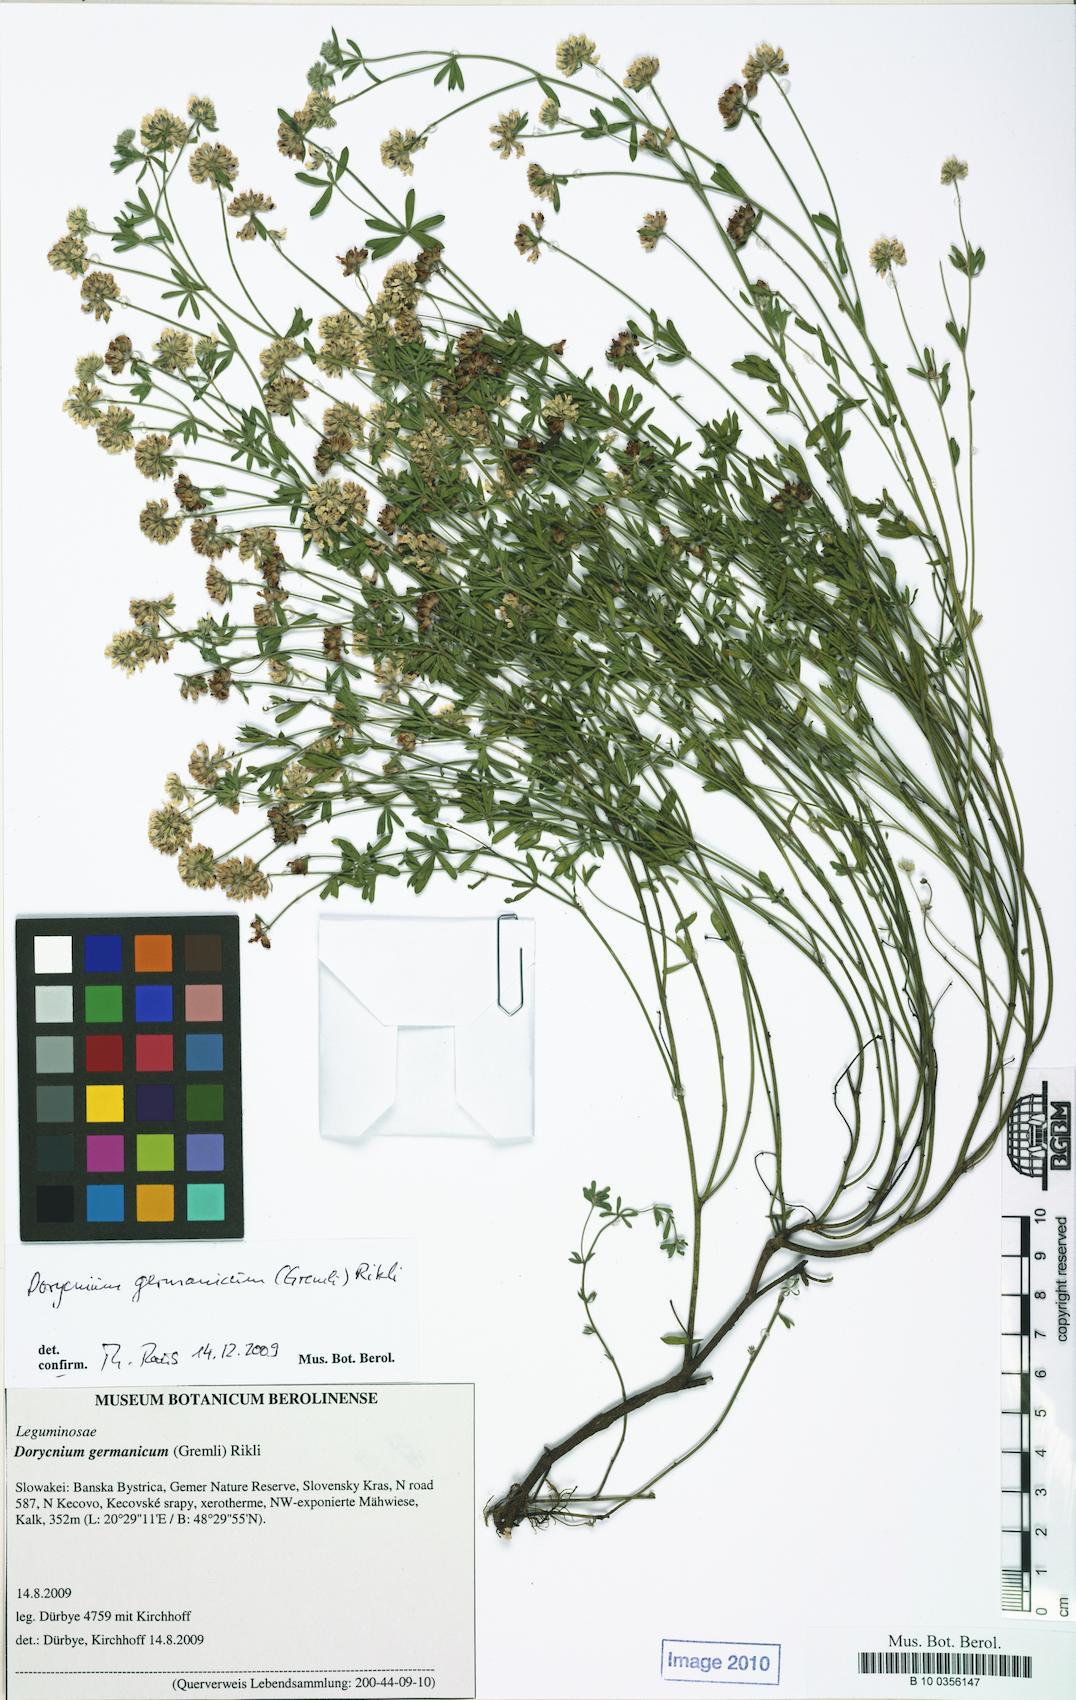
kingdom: Plantae
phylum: Tracheophyta
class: Magnoliopsida
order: Fabales
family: Fabaceae
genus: Lotus
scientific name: Lotus germanicus
